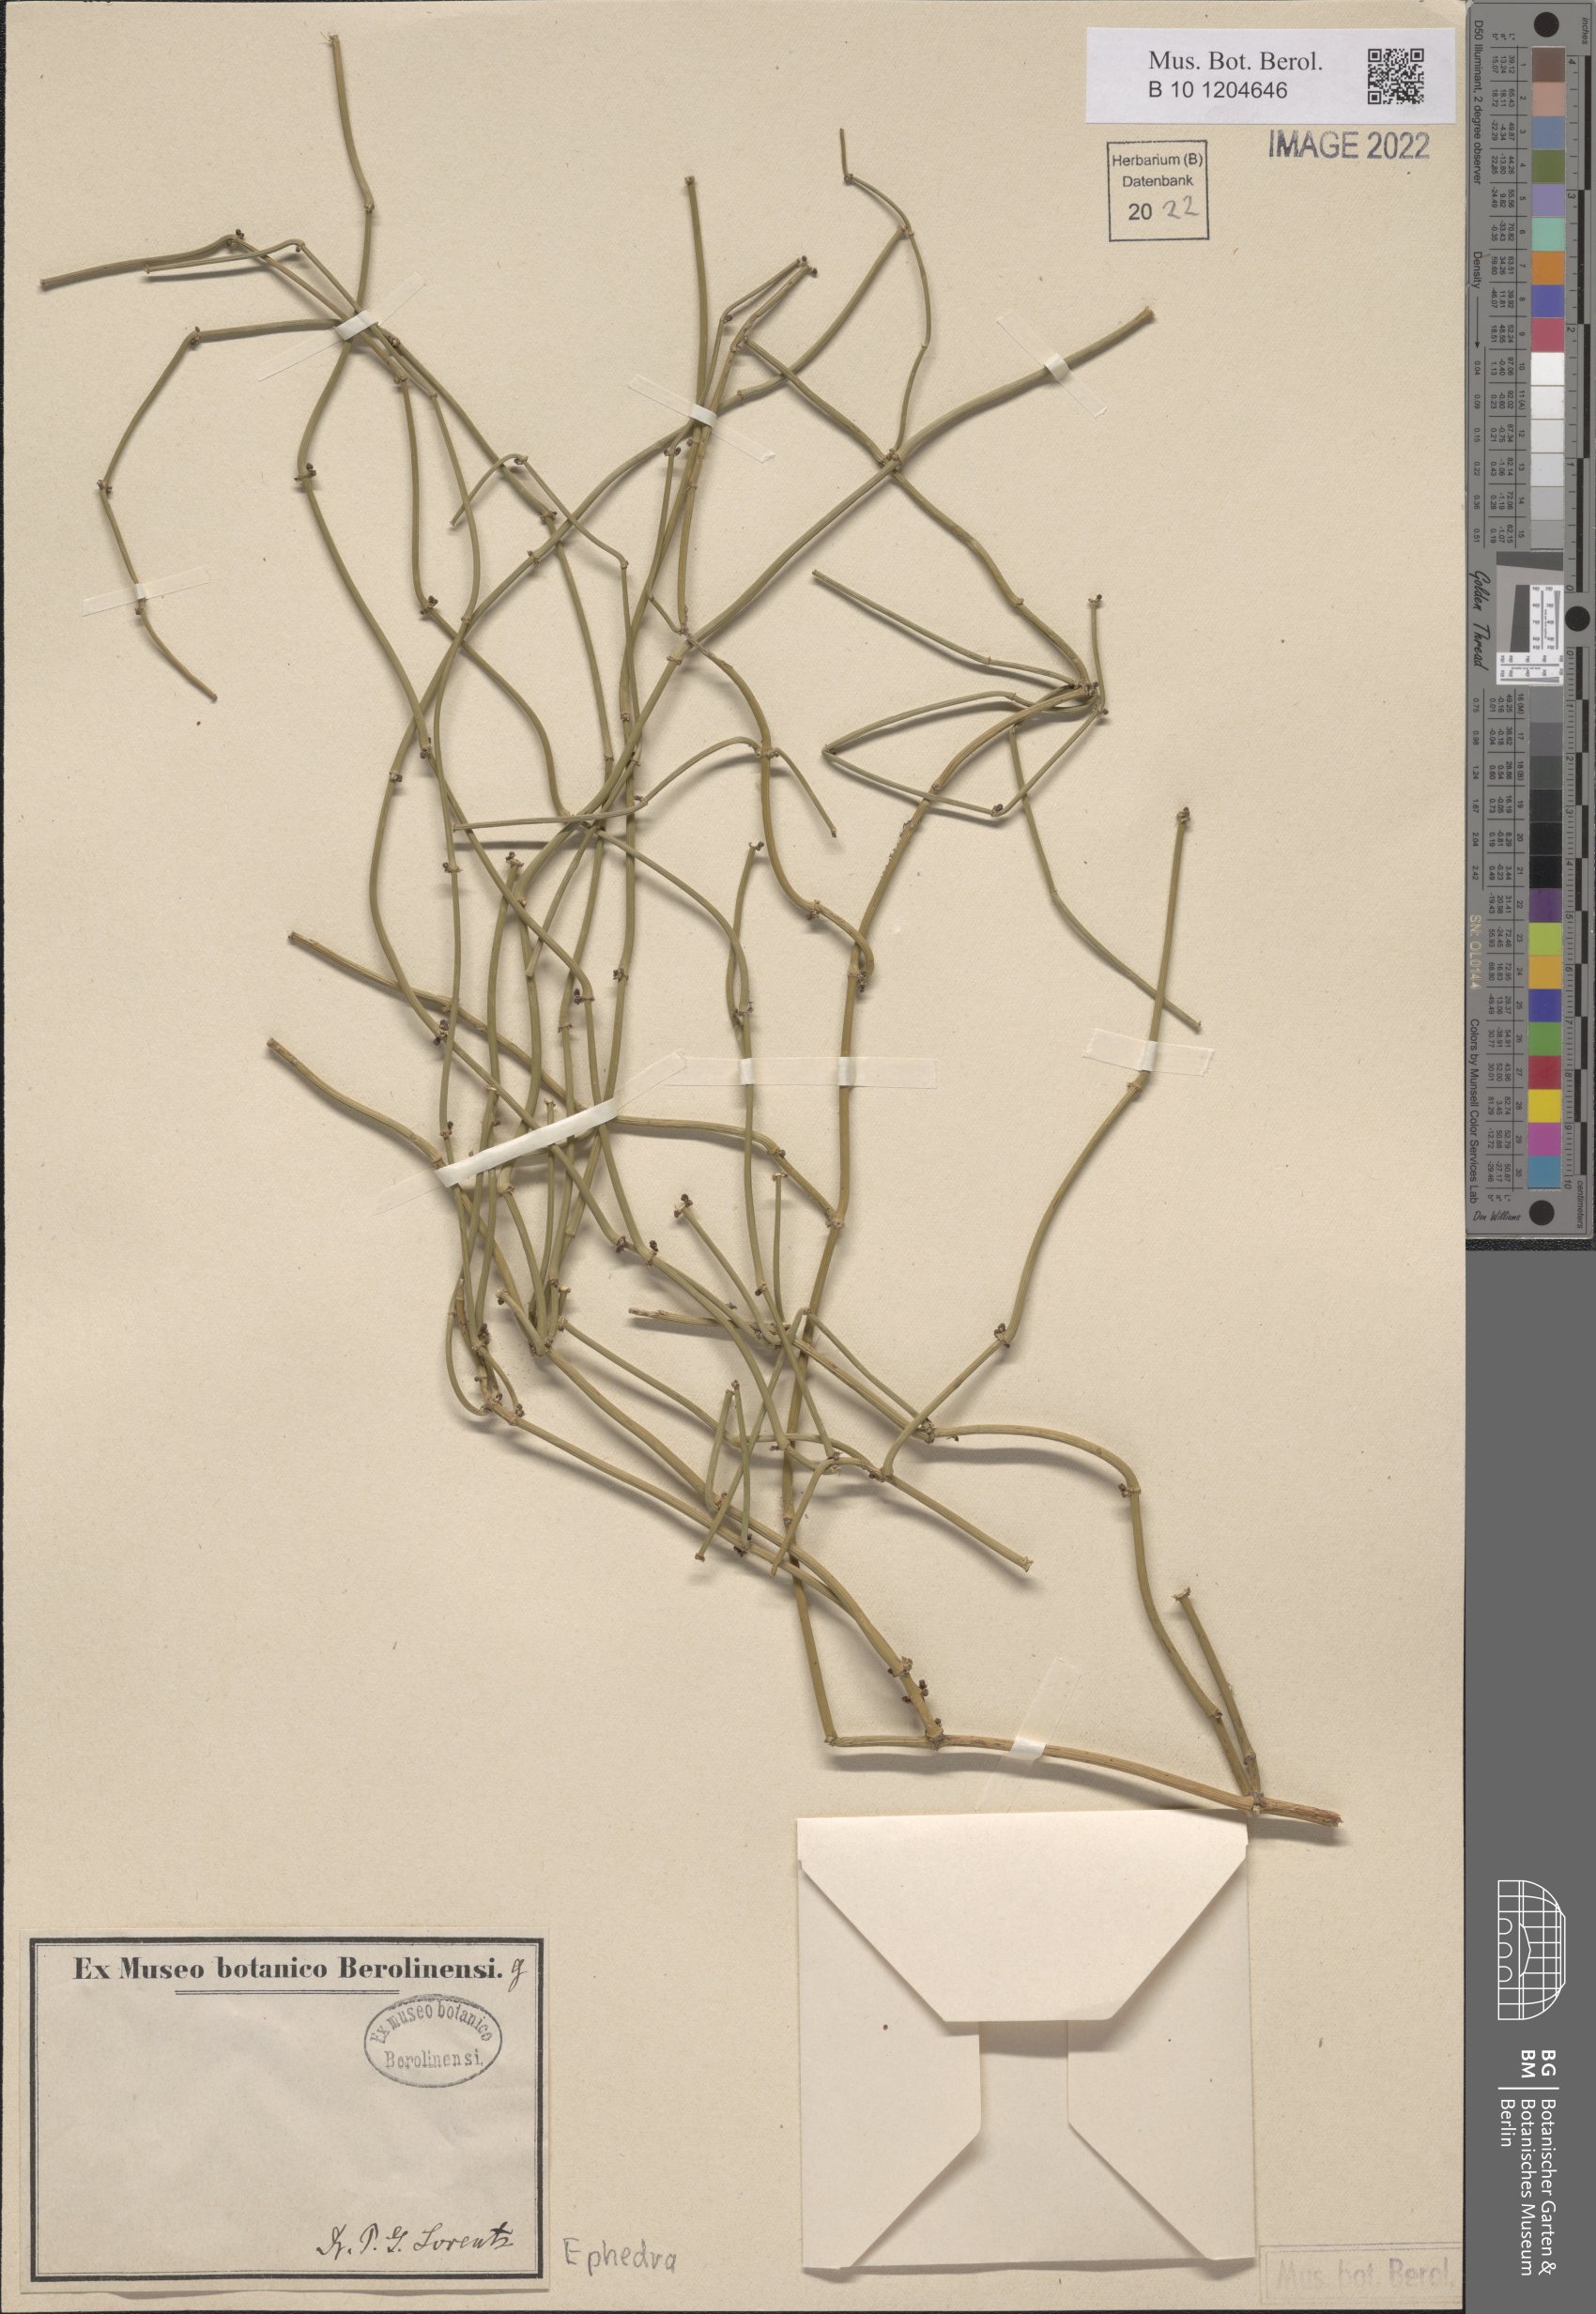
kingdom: Plantae
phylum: Tracheophyta
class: Gnetopsida
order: Ephedrales
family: Ephedraceae
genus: Ephedra
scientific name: Ephedra
